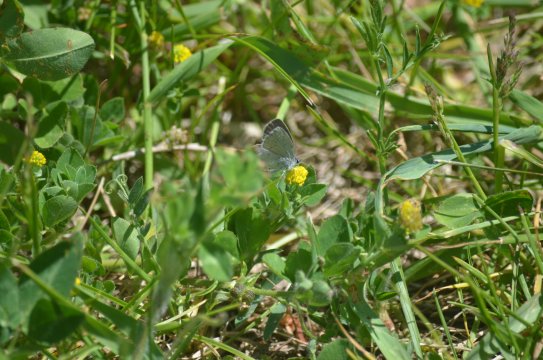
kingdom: Animalia
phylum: Arthropoda
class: Insecta
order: Lepidoptera
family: Lycaenidae
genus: Celastrina
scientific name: Celastrina lucia
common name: Northern Spring Azure
